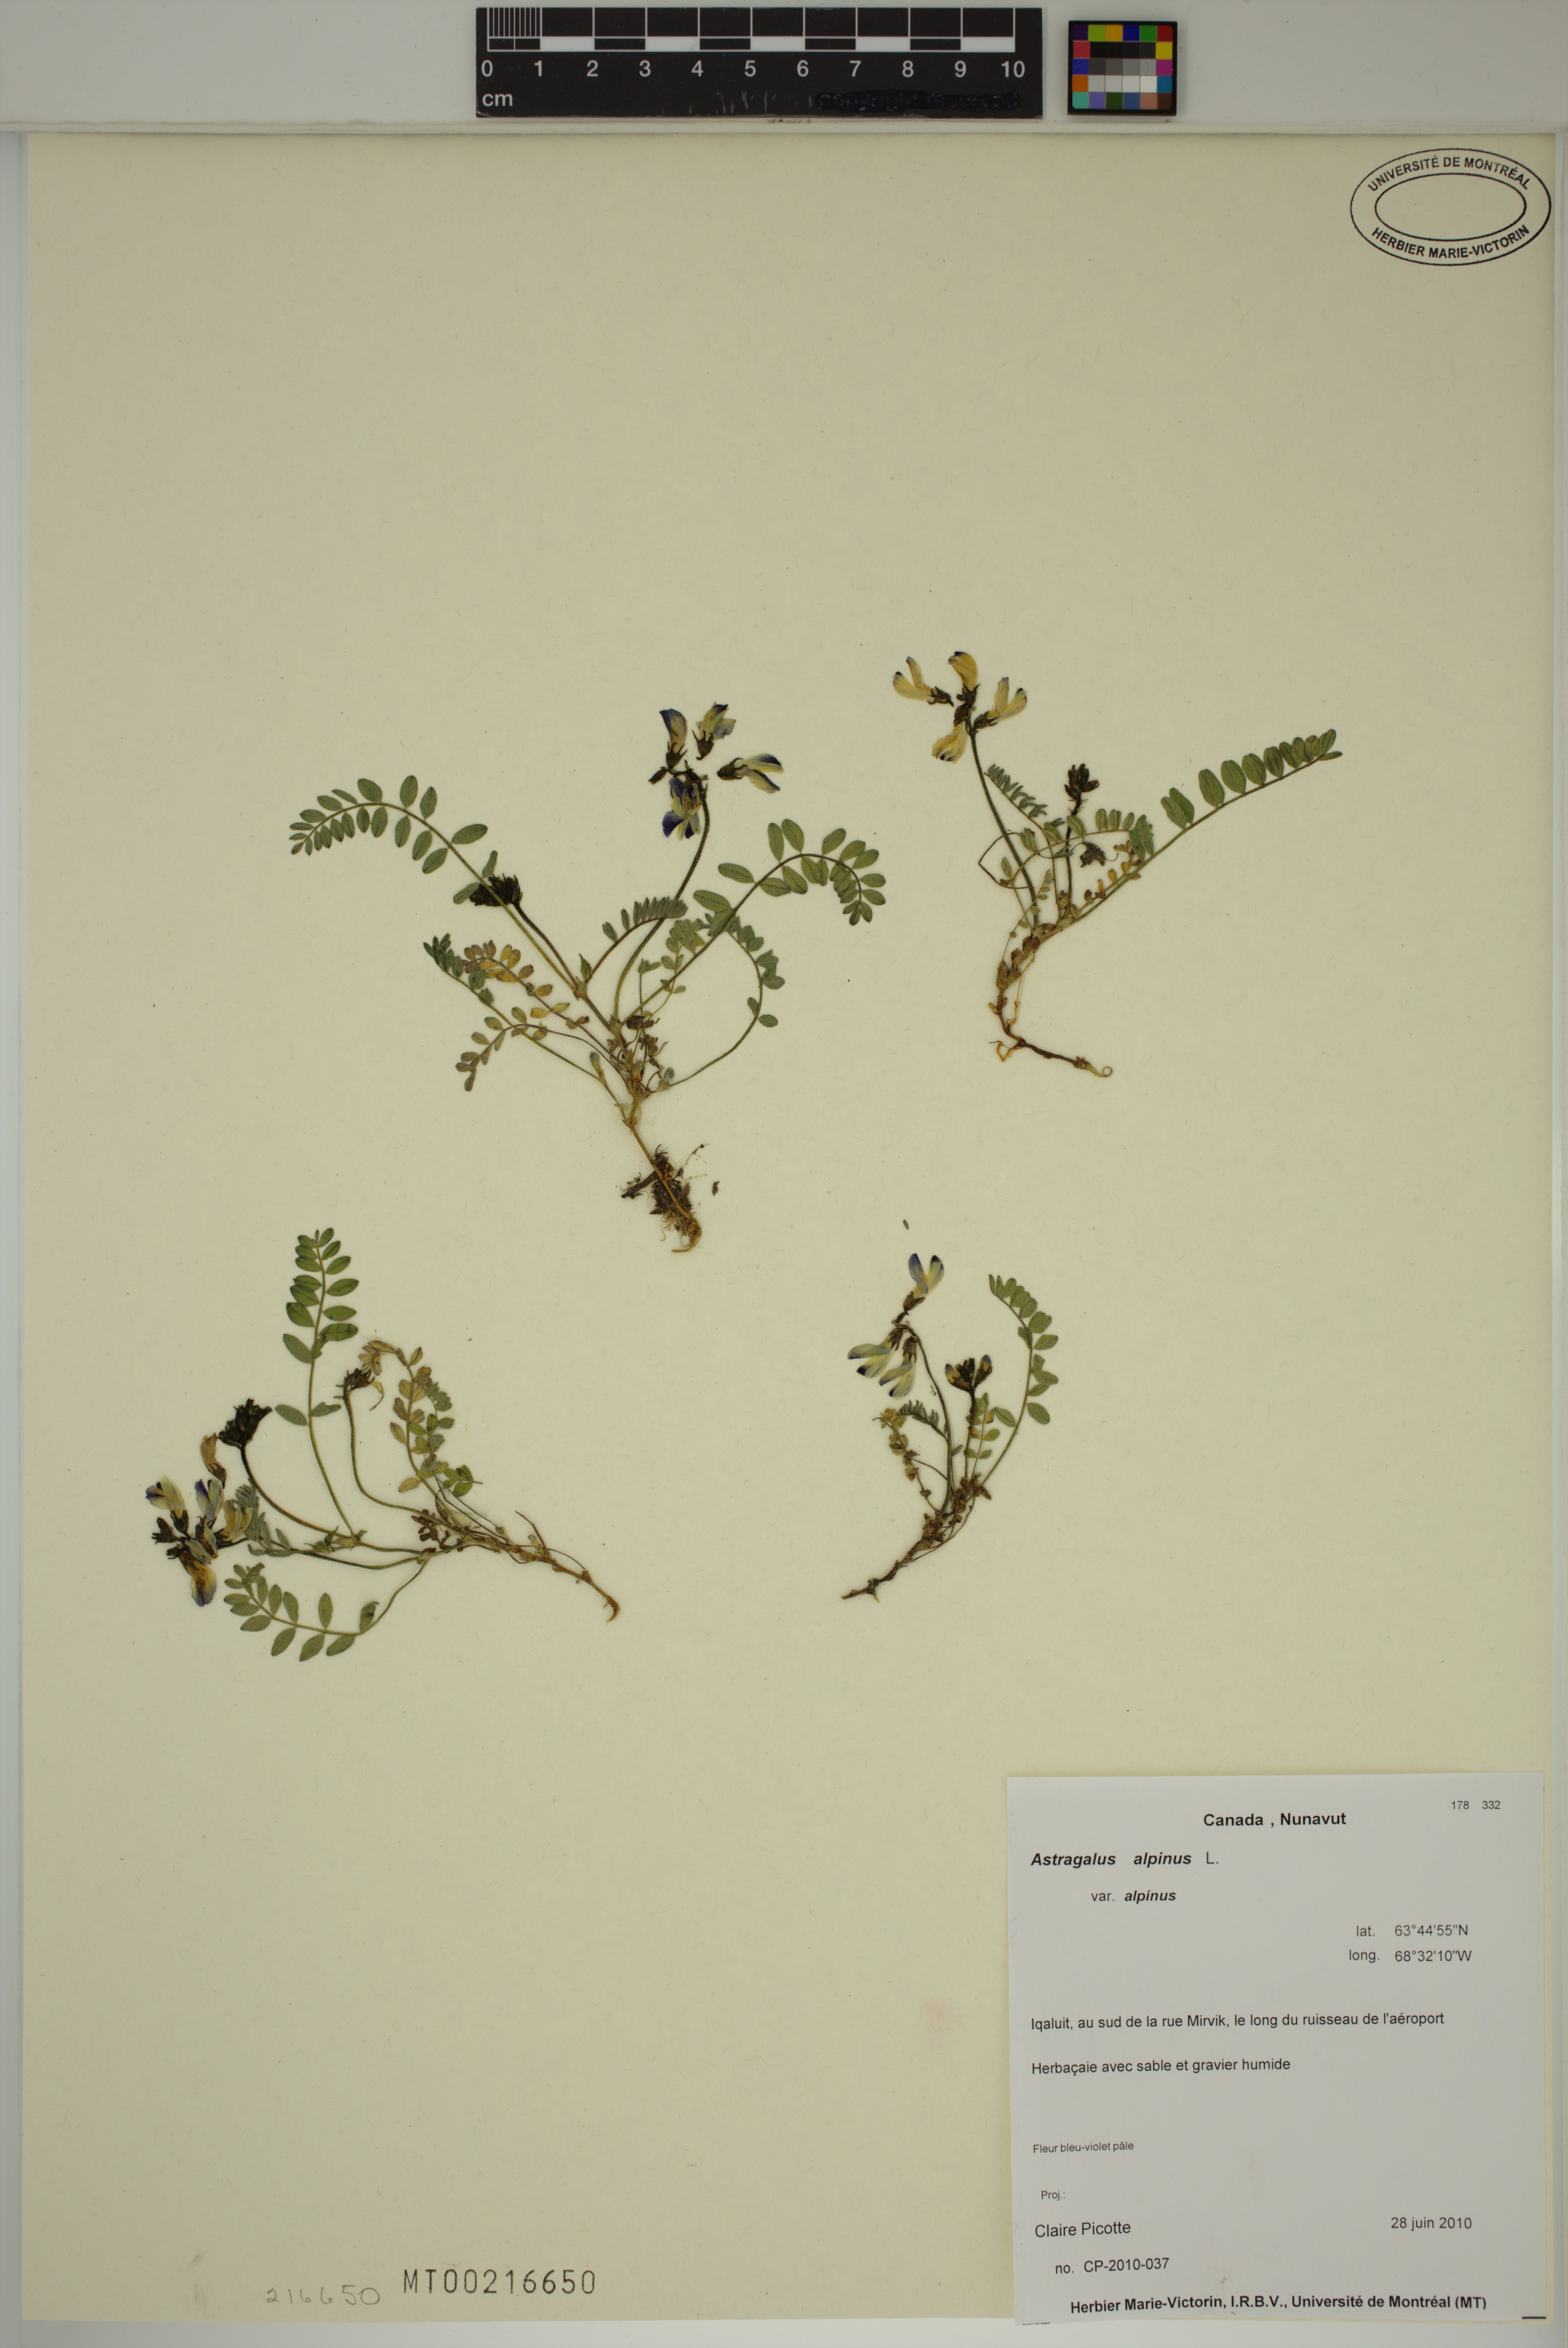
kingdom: Plantae
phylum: Tracheophyta
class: Magnoliopsida
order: Fabales
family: Fabaceae
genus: Astragalus
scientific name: Astragalus alpinus
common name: Alpine milk-vetch
